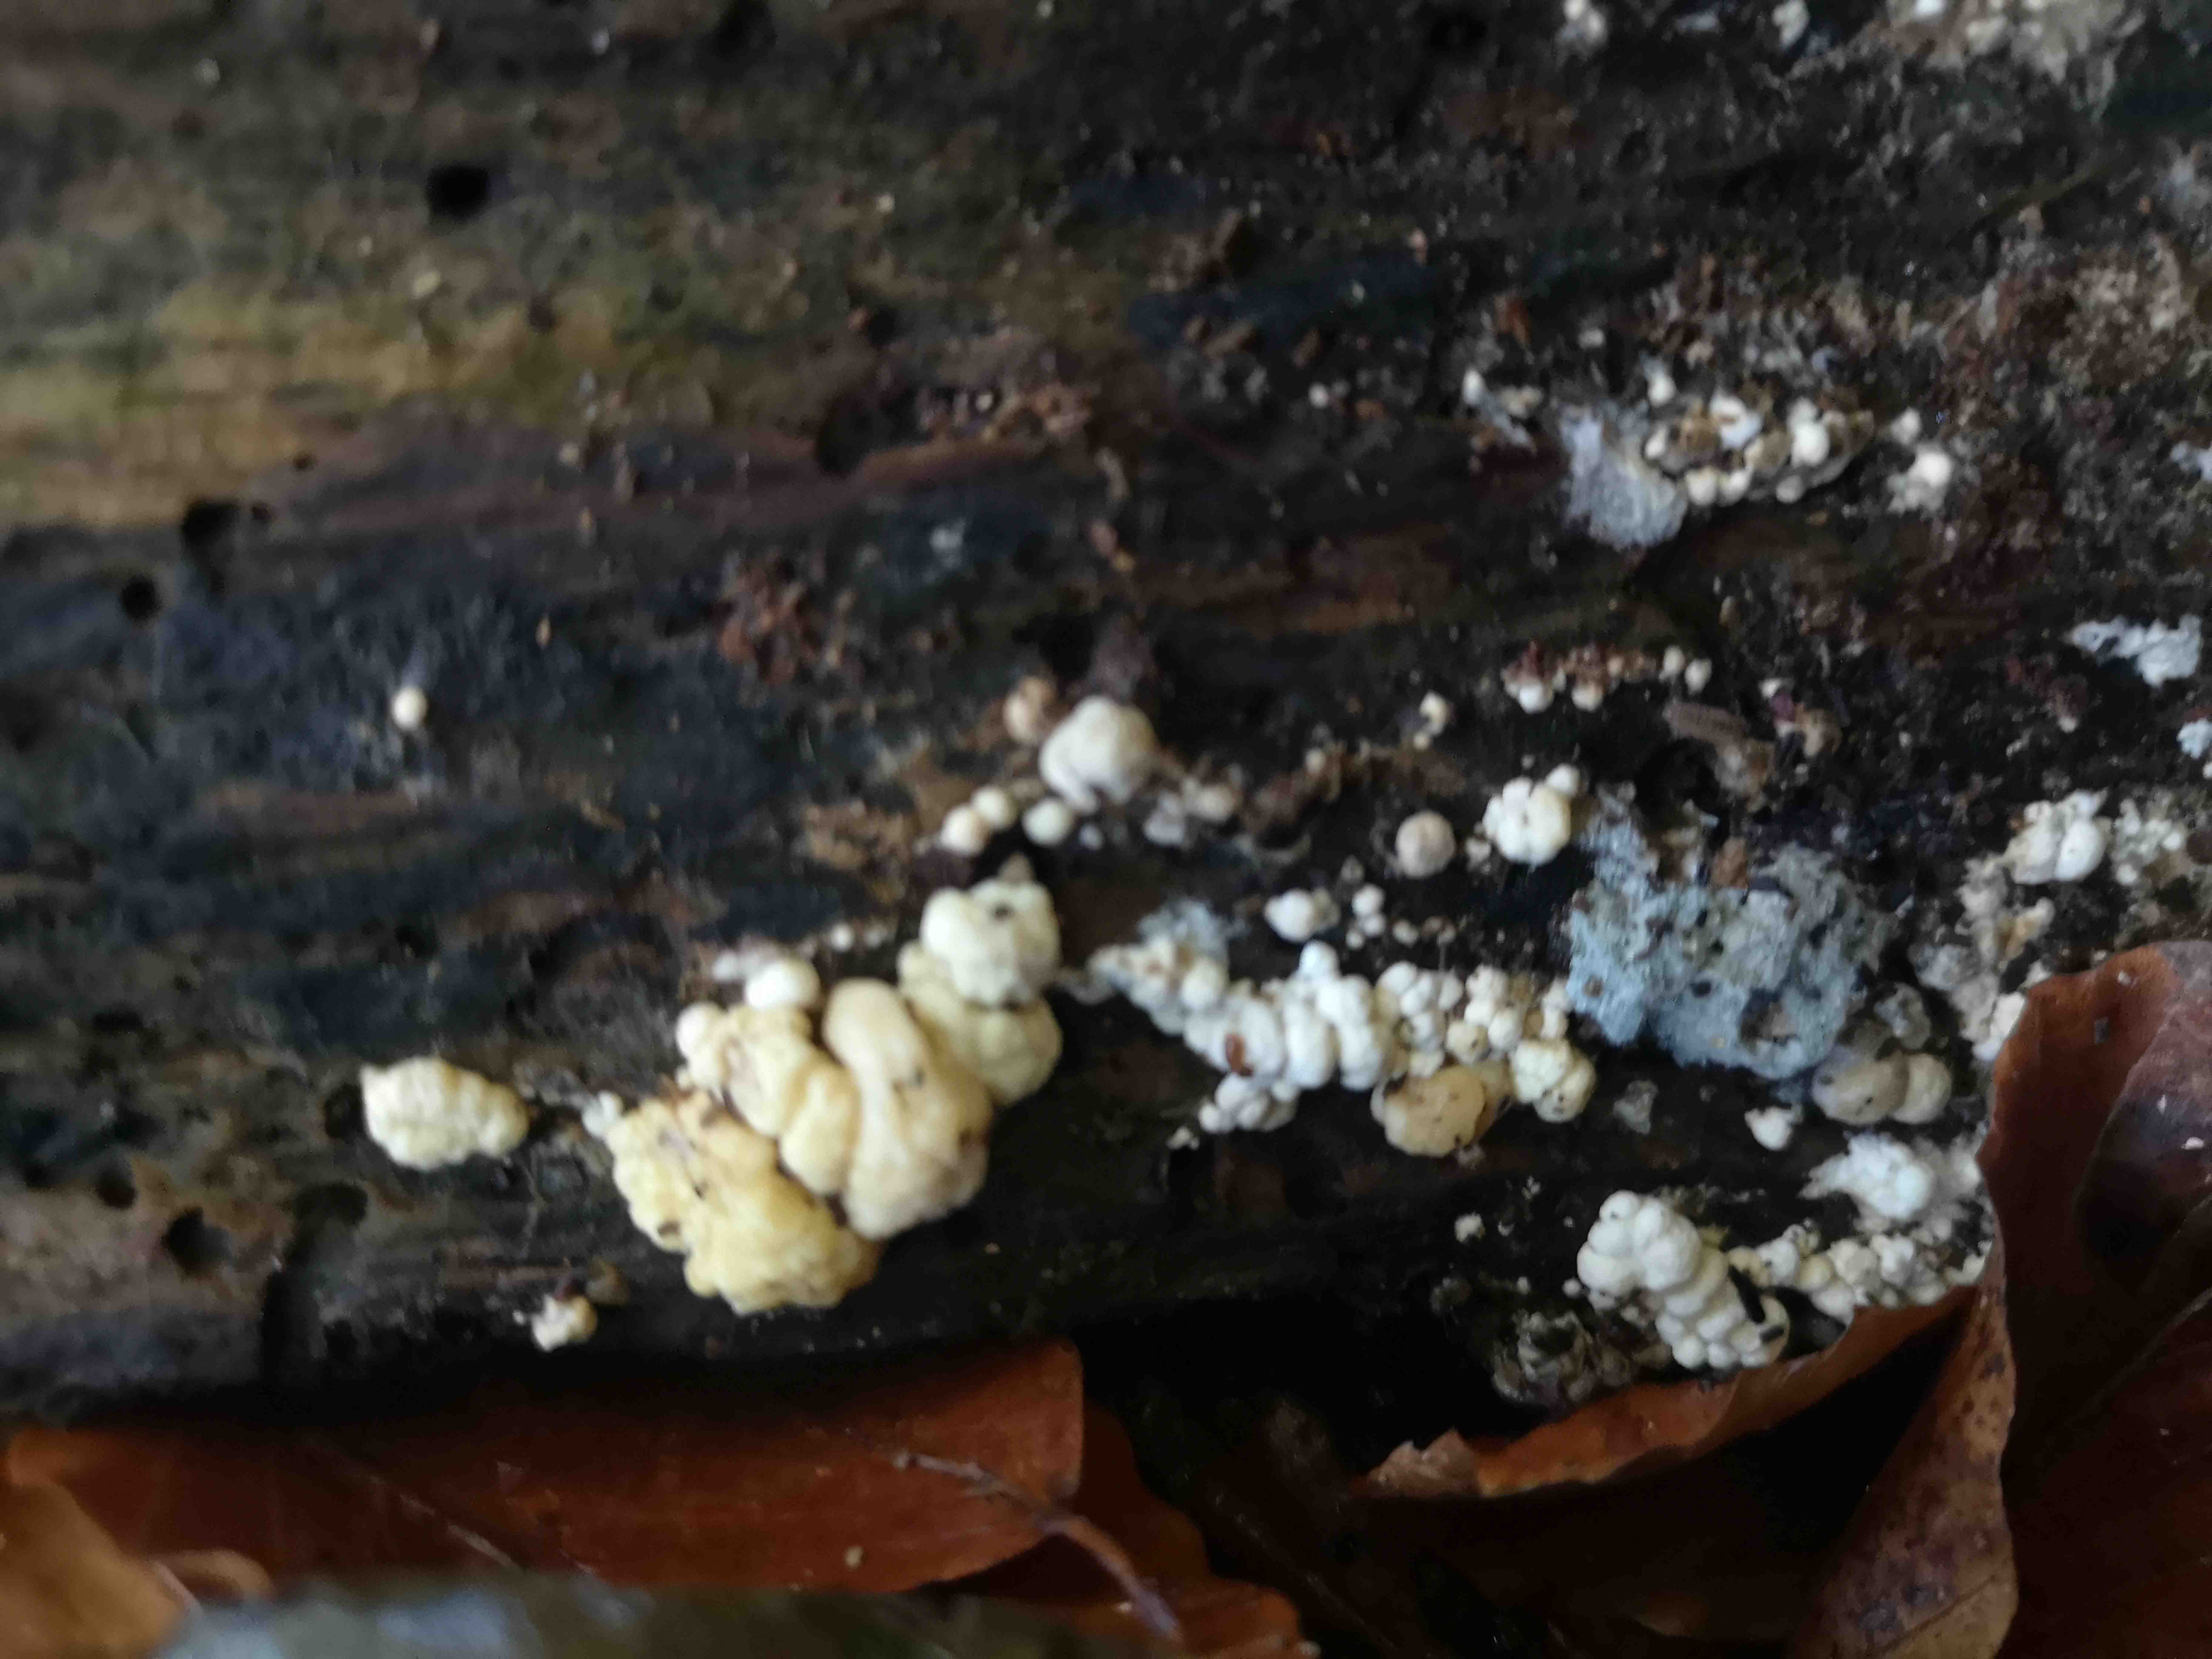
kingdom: Fungi
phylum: Basidiomycota
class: Agaricomycetes
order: Boletales
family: Coniophoraceae
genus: Coniophora
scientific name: Coniophora puteana
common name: gul tømmersvamp
